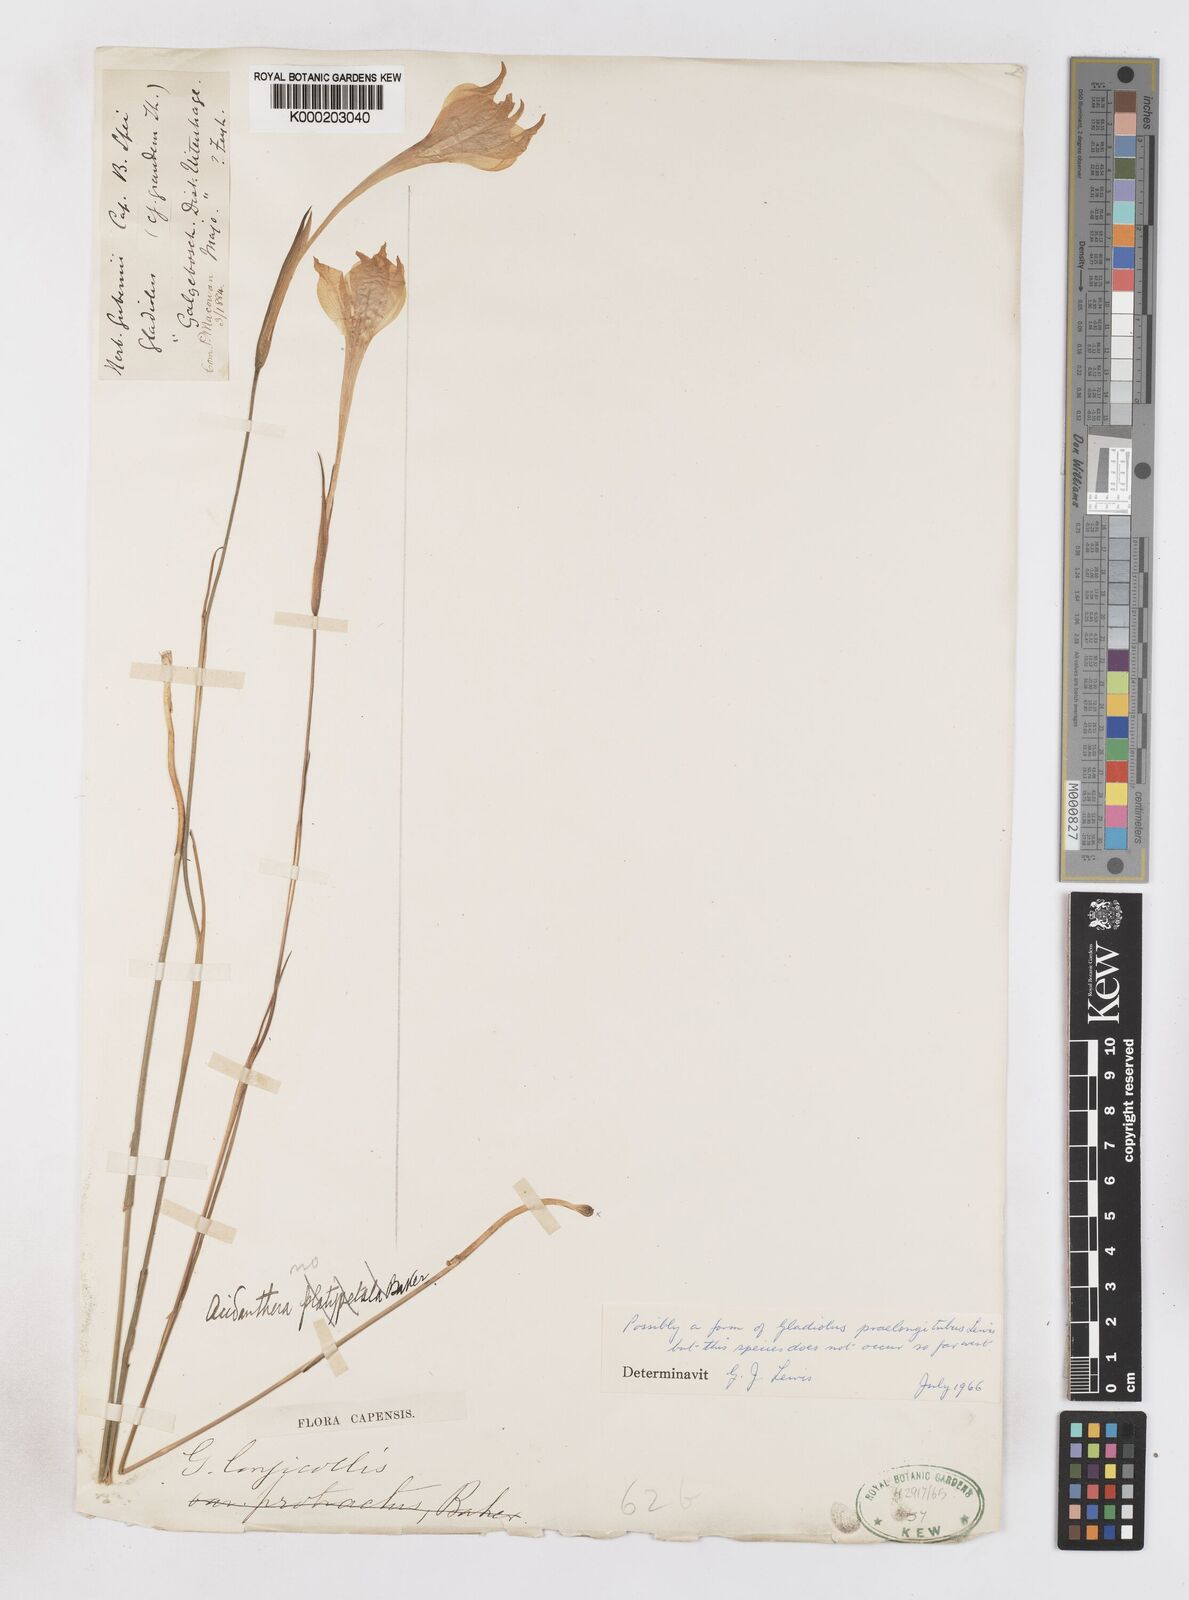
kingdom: Plantae
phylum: Tracheophyta
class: Liliopsida
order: Asparagales
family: Iridaceae
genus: Gladiolus
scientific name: Gladiolus longicollis
